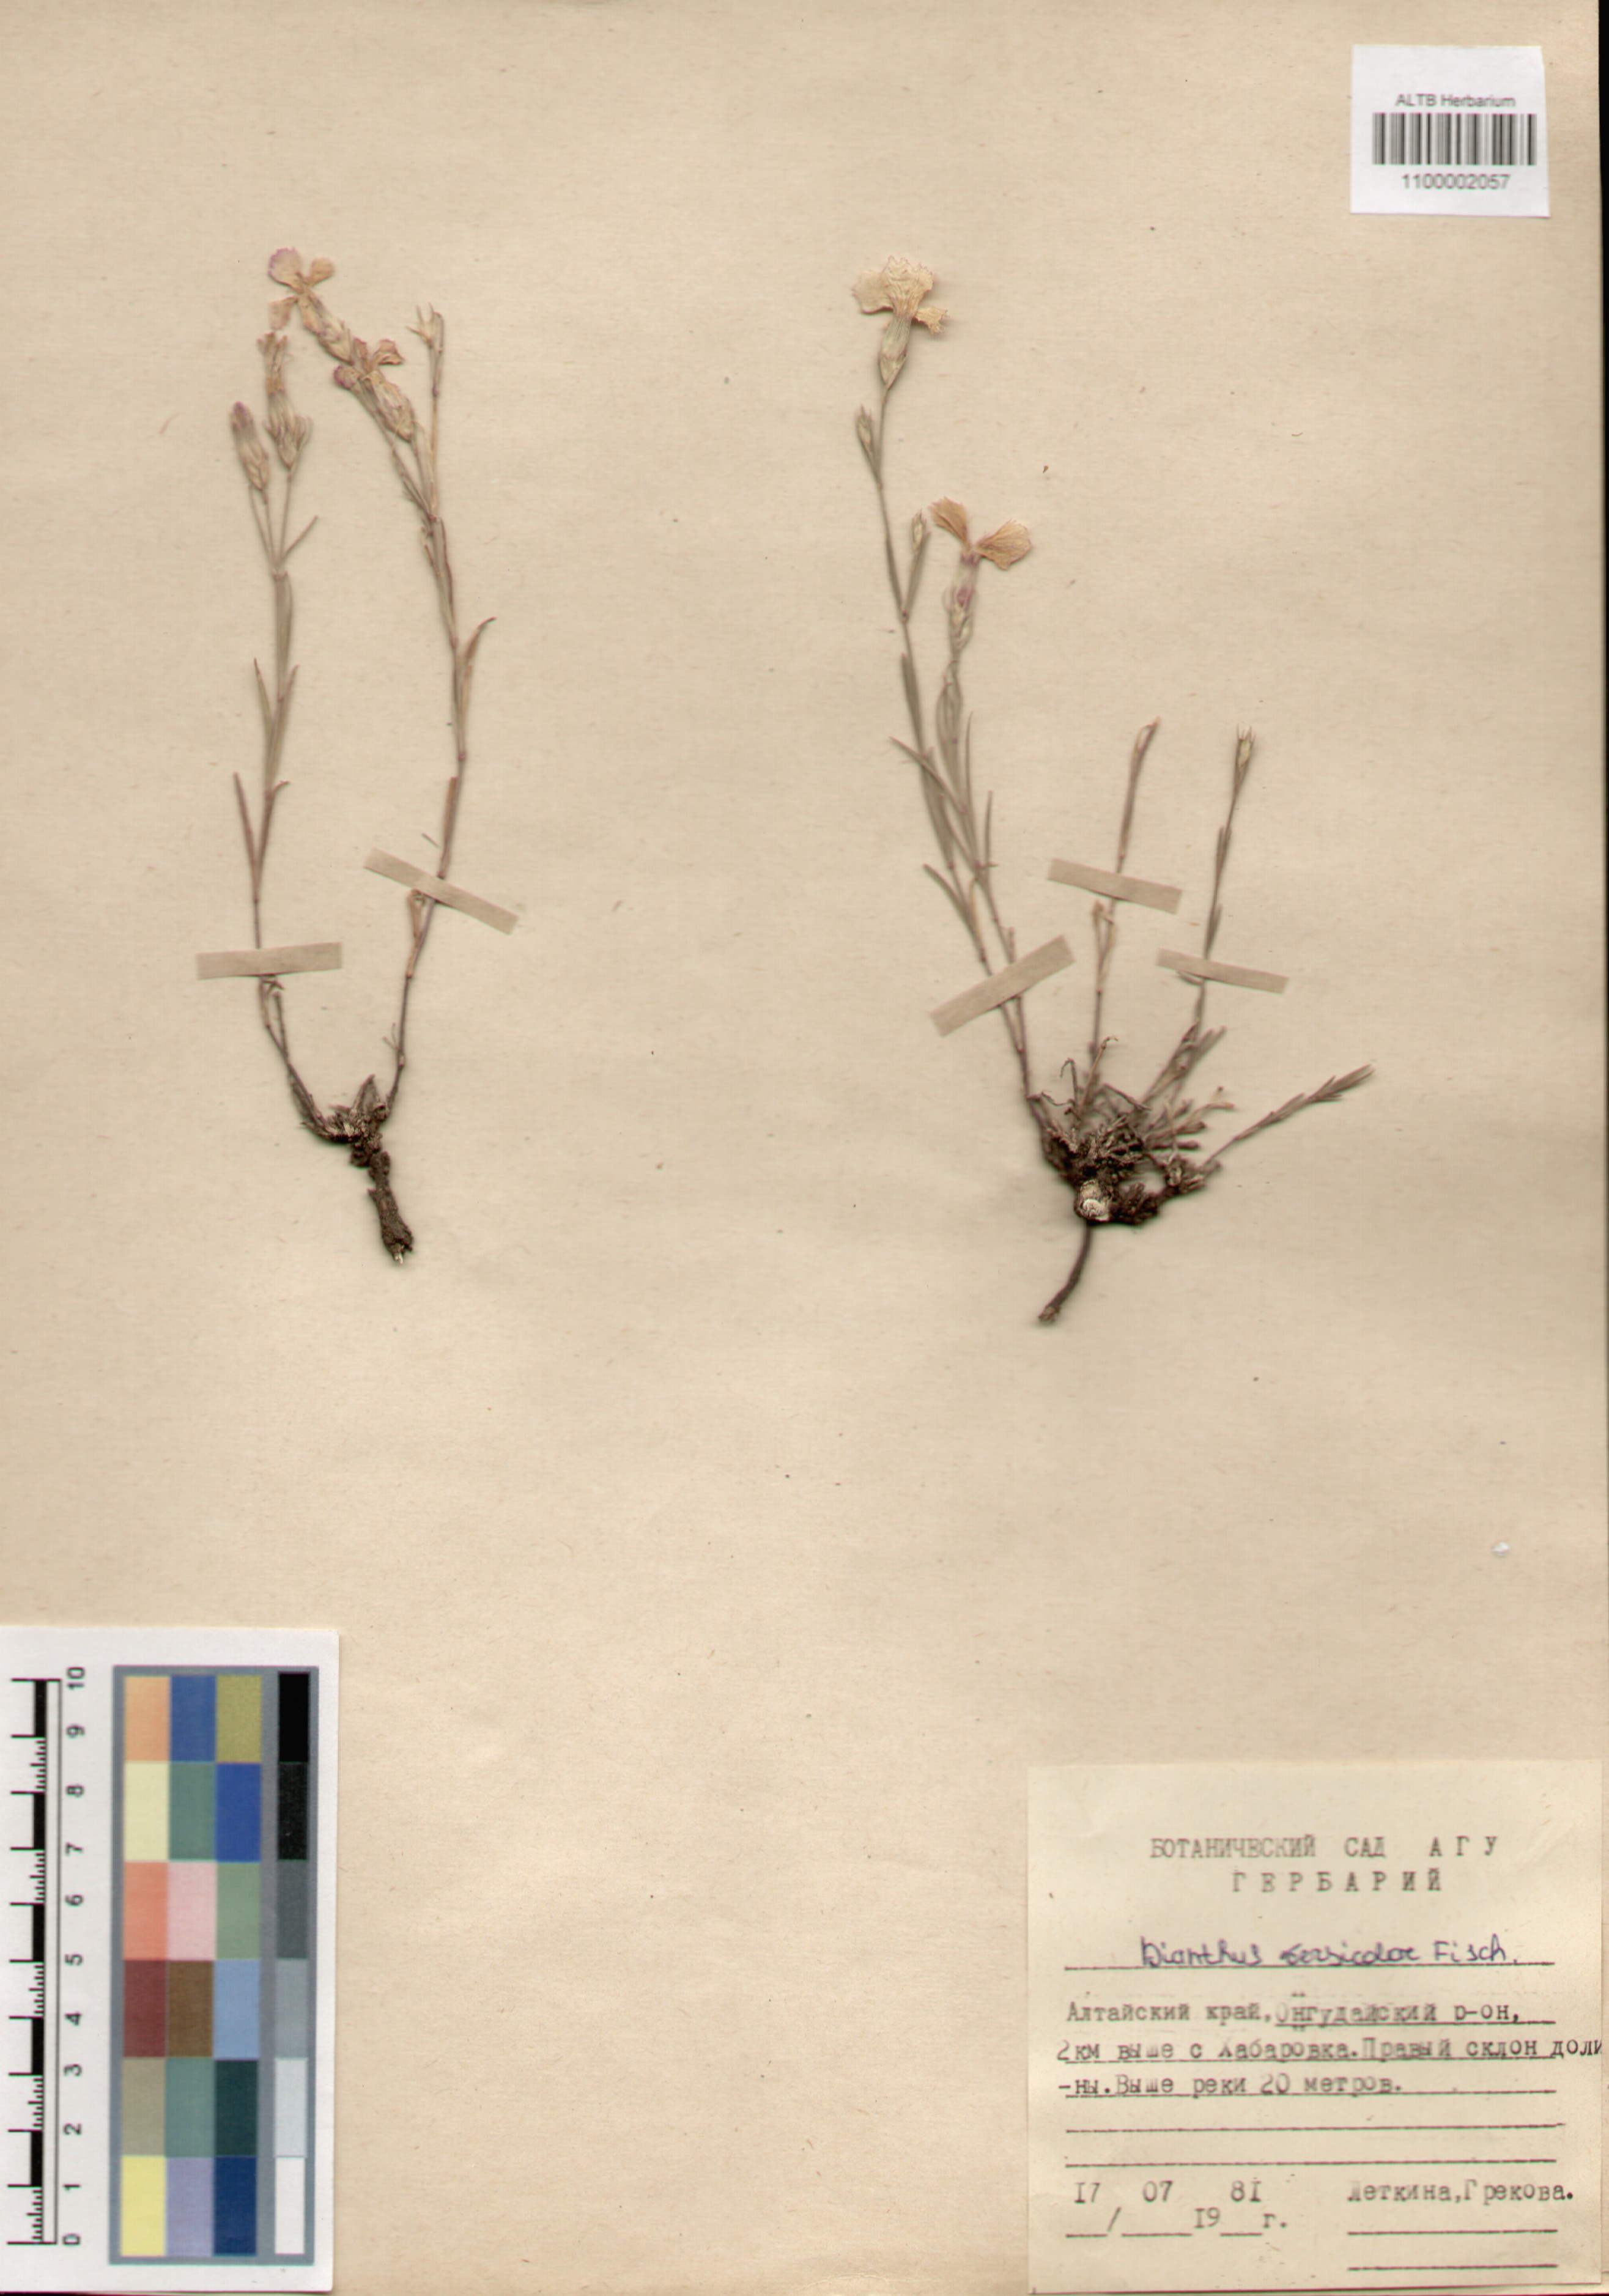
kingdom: Plantae
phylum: Tracheophyta
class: Magnoliopsida
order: Caryophyllales
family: Caryophyllaceae
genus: Dianthus
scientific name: Dianthus chinensis
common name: Rainbow pink
